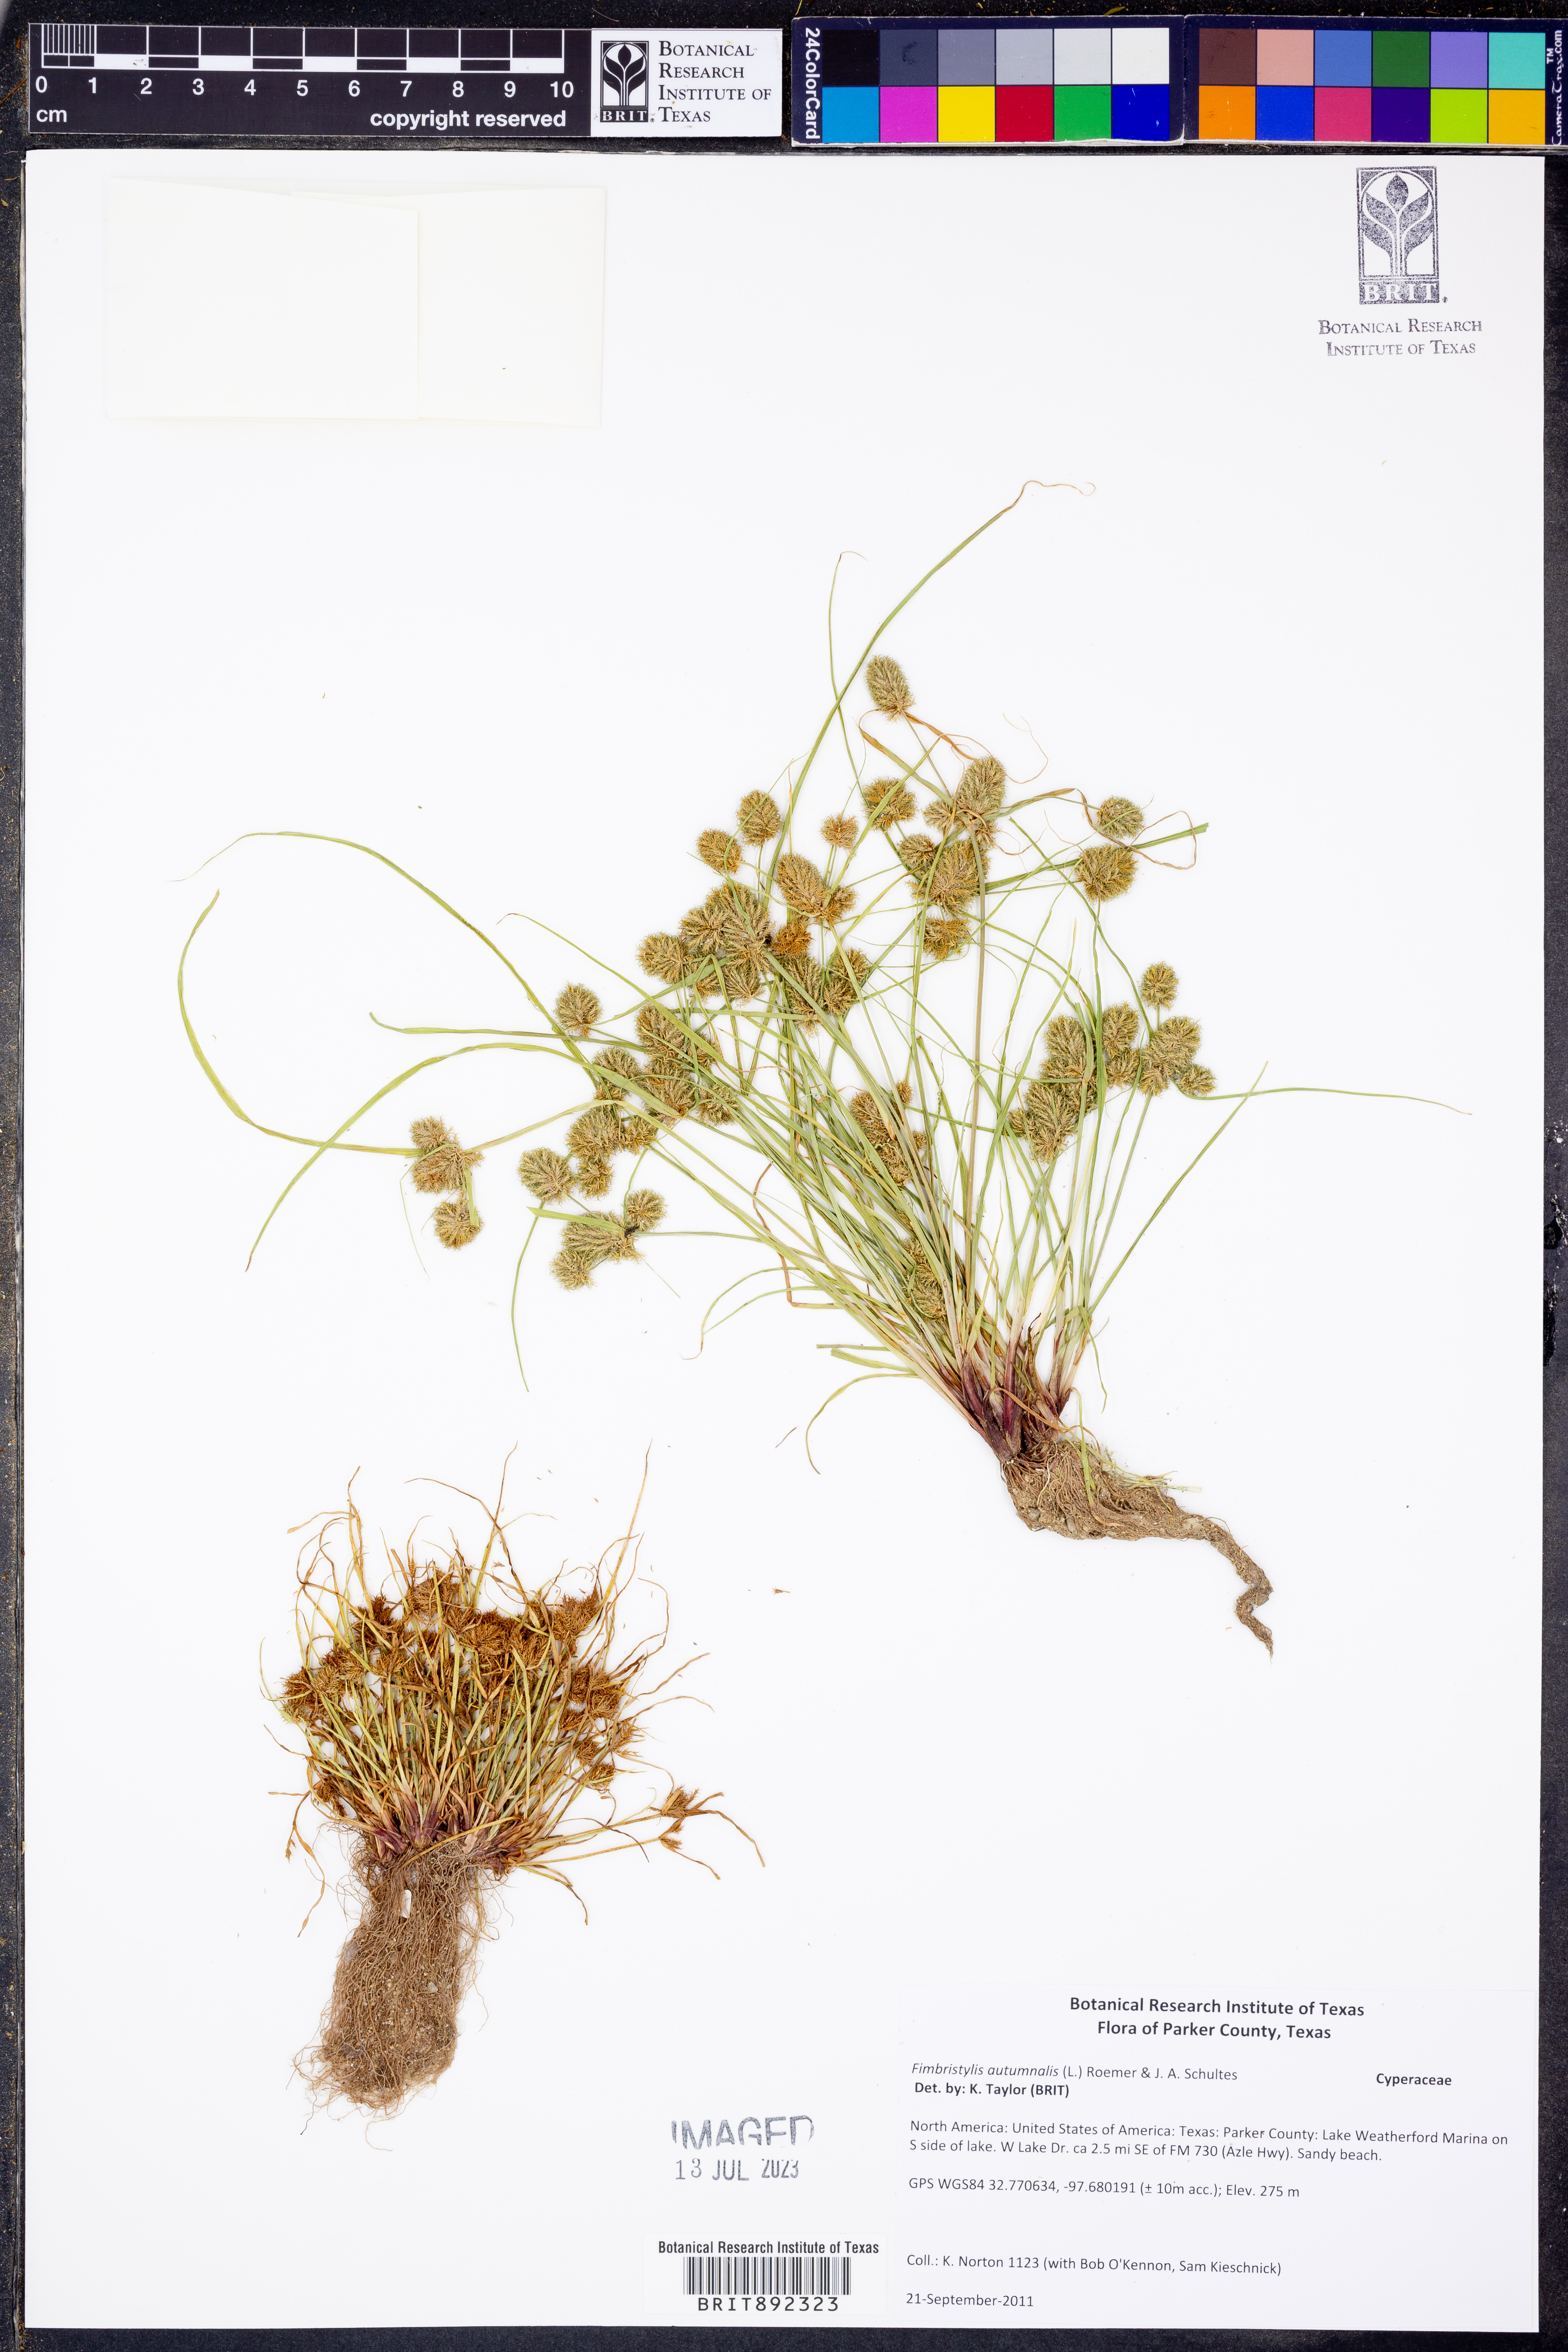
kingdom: Plantae
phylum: Tracheophyta
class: Liliopsida
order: Poales
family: Cyperaceae
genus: Fimbristylis
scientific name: Fimbristylis autumnalis
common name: Slender fimbristylis
